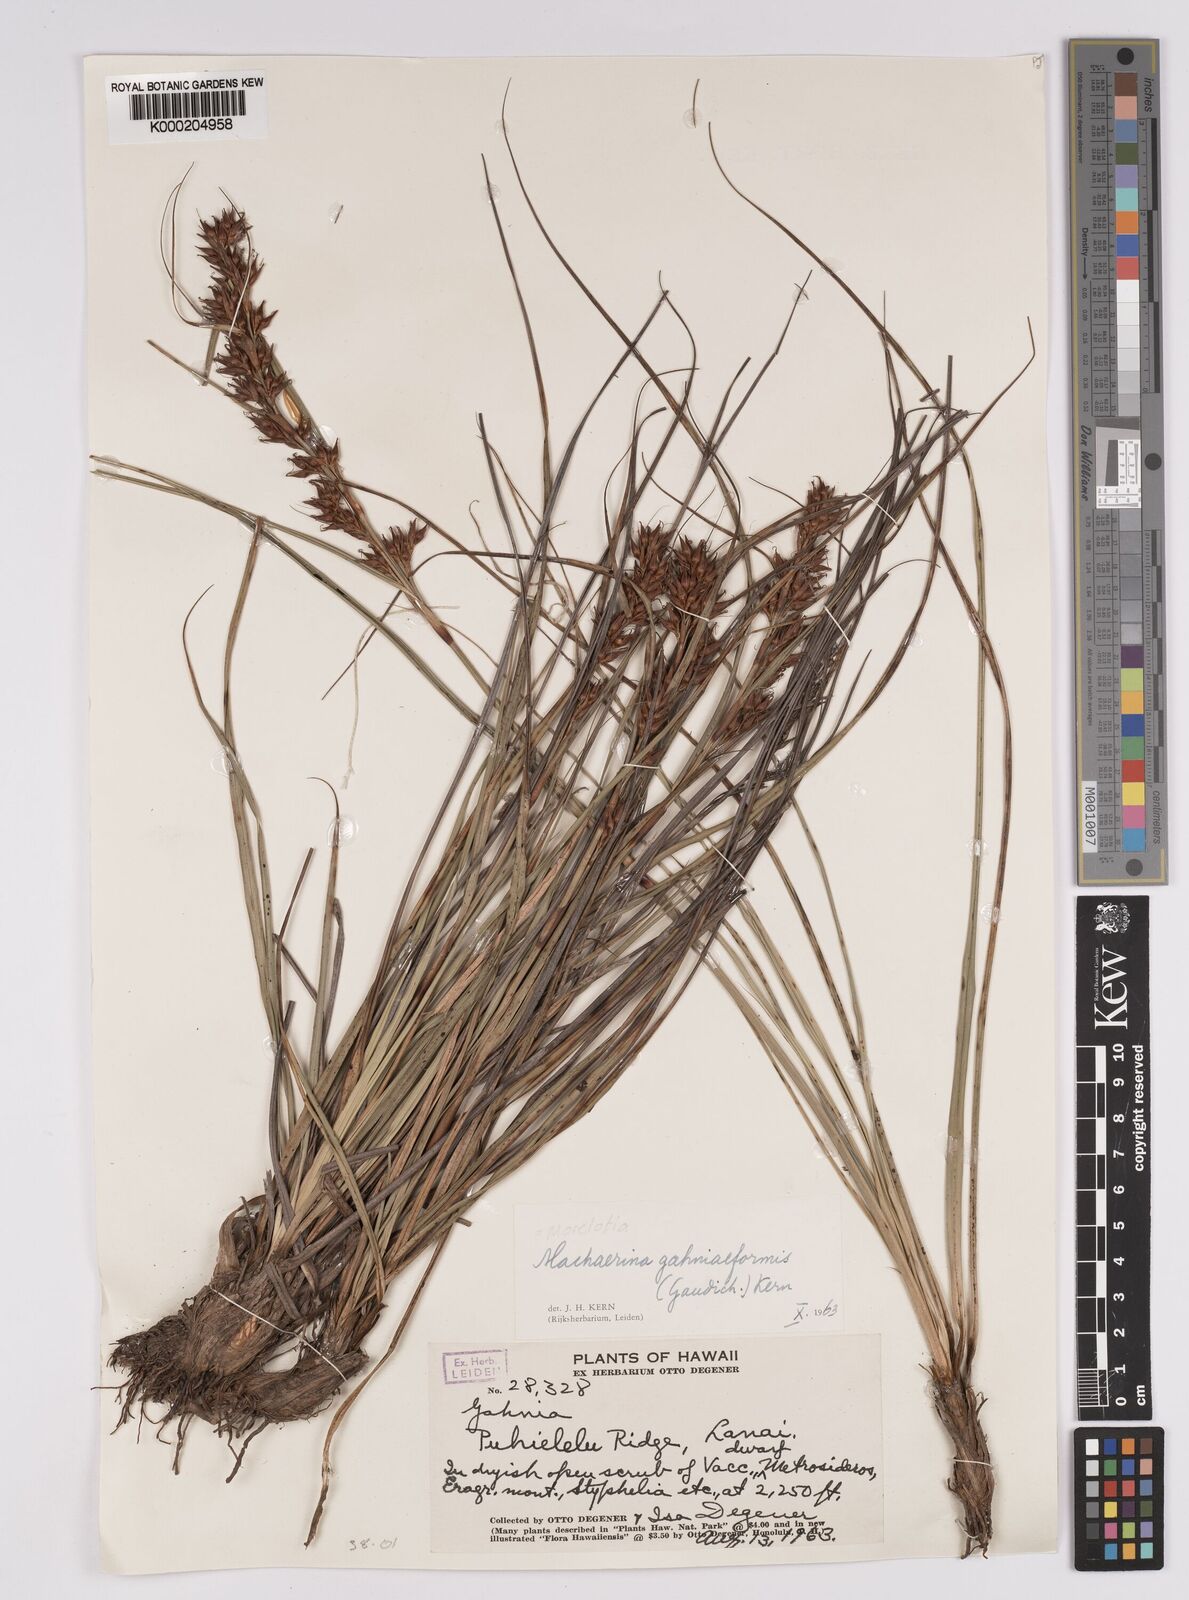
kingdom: Plantae
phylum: Tracheophyta
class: Liliopsida
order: Poales
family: Cyperaceae
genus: Morelotia
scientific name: Morelotia gahniiformis
